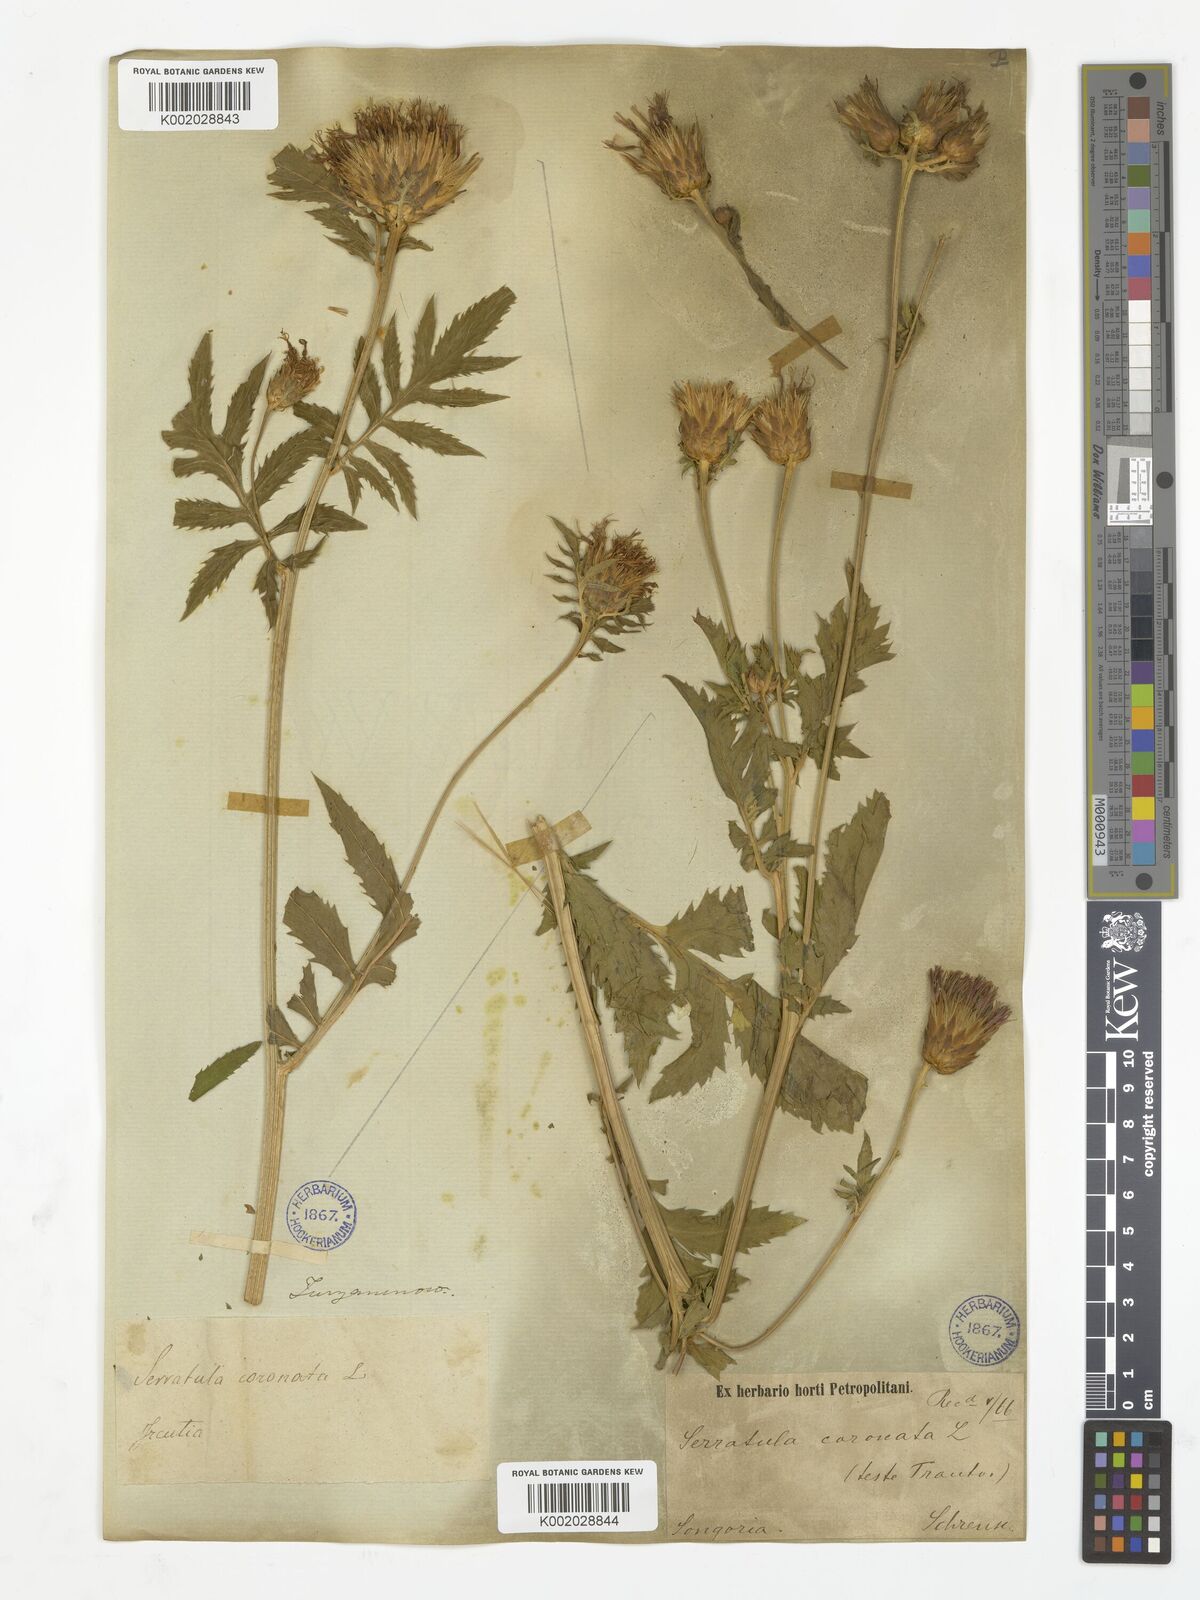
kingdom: Plantae
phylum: Tracheophyta
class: Magnoliopsida
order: Asterales
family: Asteraceae
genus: Serratula
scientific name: Serratula coronata
